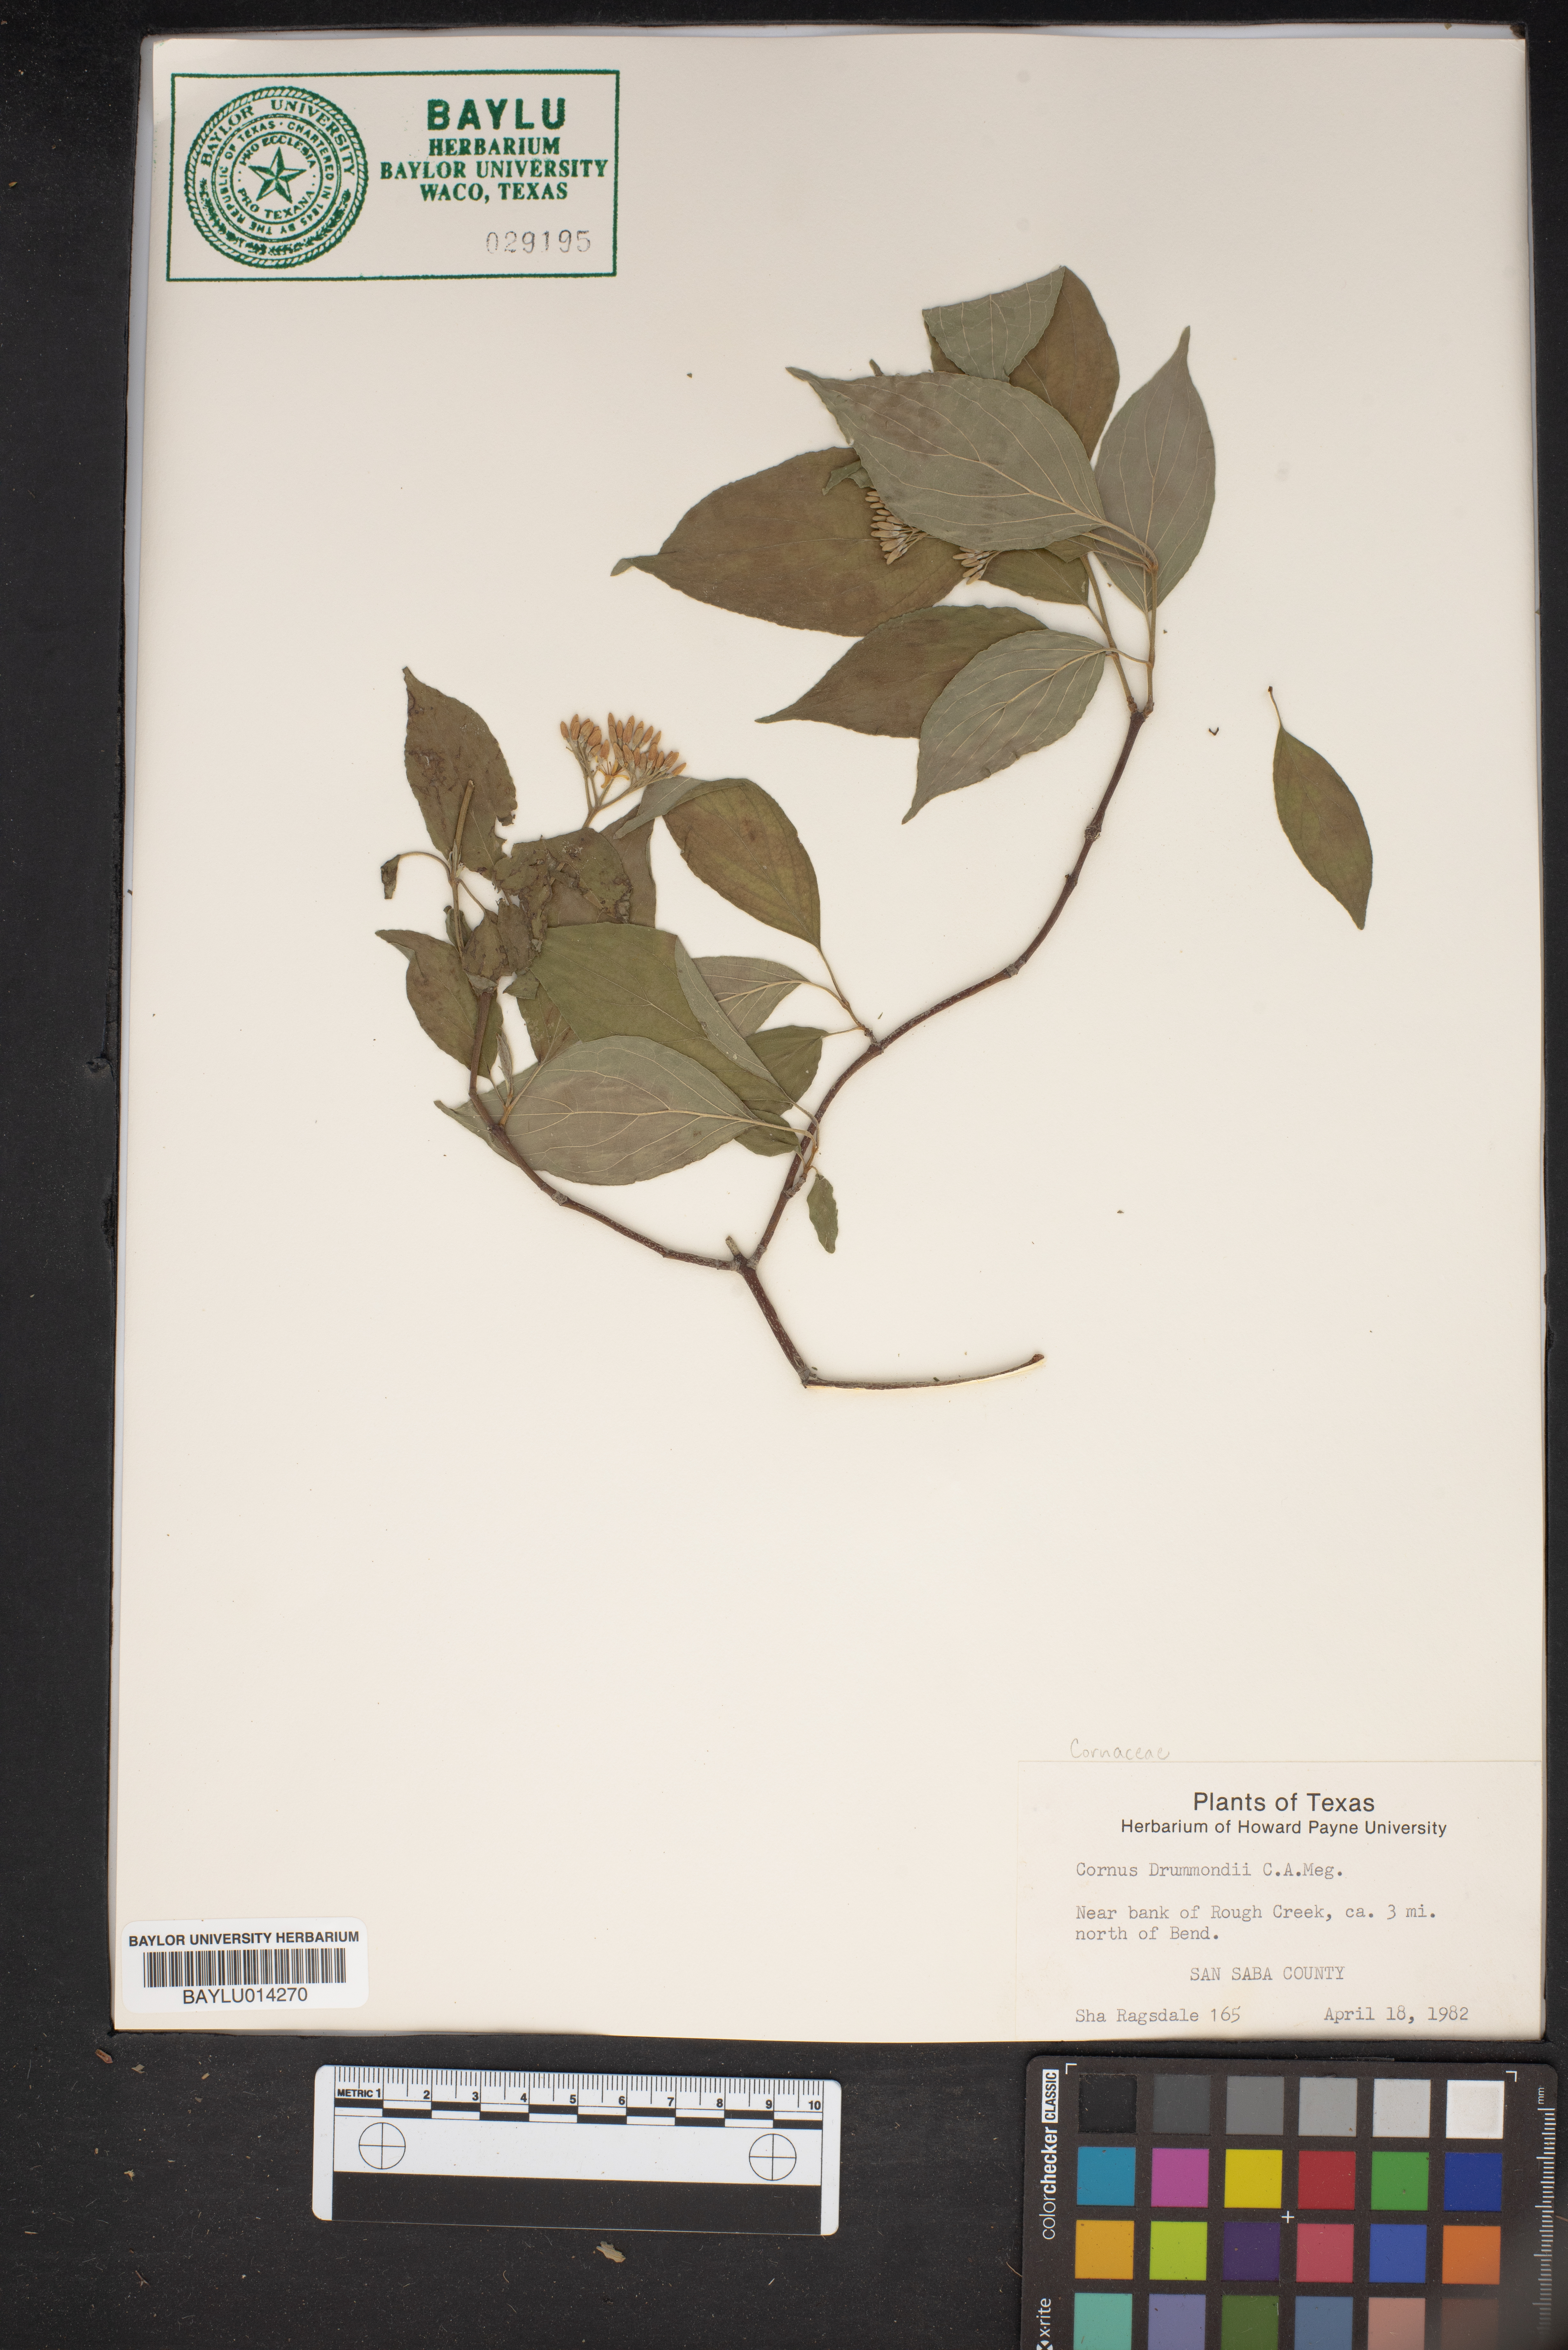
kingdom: Plantae
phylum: Tracheophyta
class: Magnoliopsida
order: Cornales
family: Cornaceae
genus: Cornus
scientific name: Cornus drummondii
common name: Rough-leaf dogwood
